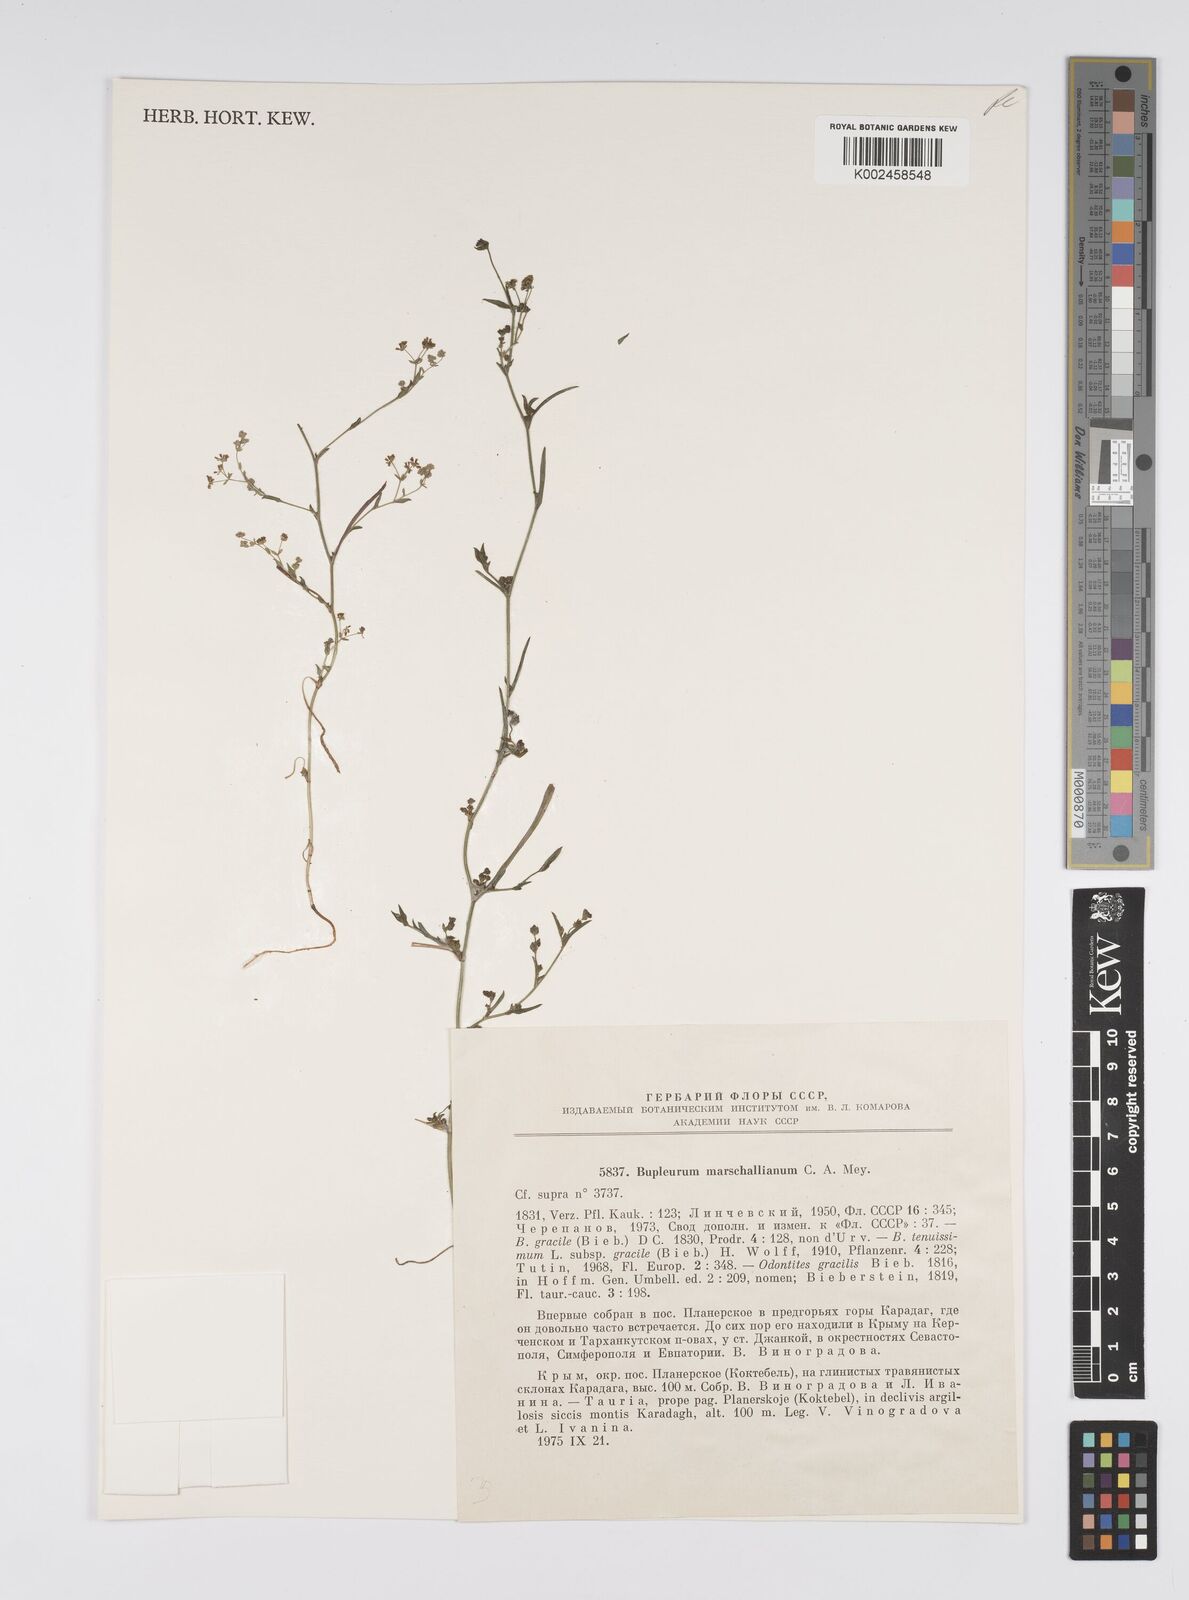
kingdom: Plantae
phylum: Tracheophyta
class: Magnoliopsida
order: Apiales
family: Apiaceae
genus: Bupleurum
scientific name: Bupleurum tenuissimum
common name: Slender hare's-ear
